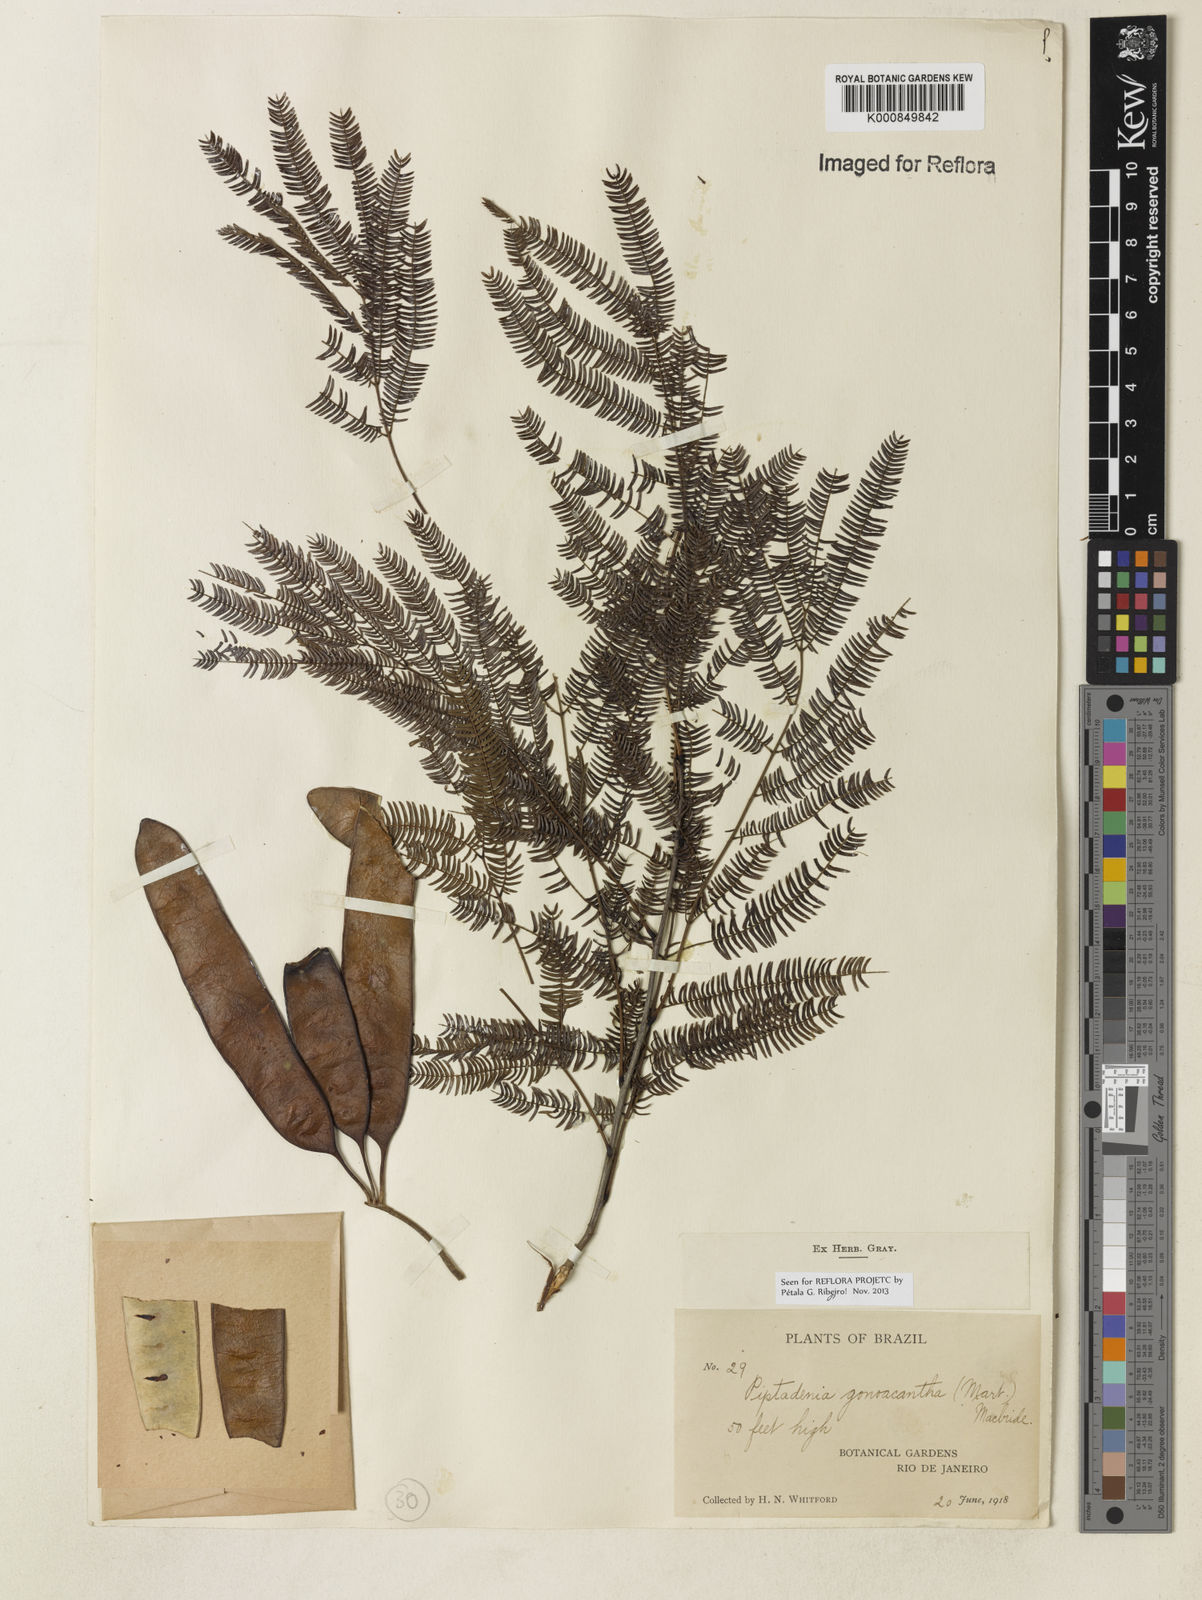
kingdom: Plantae
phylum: Tracheophyta
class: Magnoliopsida
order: Fabales
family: Fabaceae
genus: Piptadenia
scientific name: Piptadenia gonoacantha
